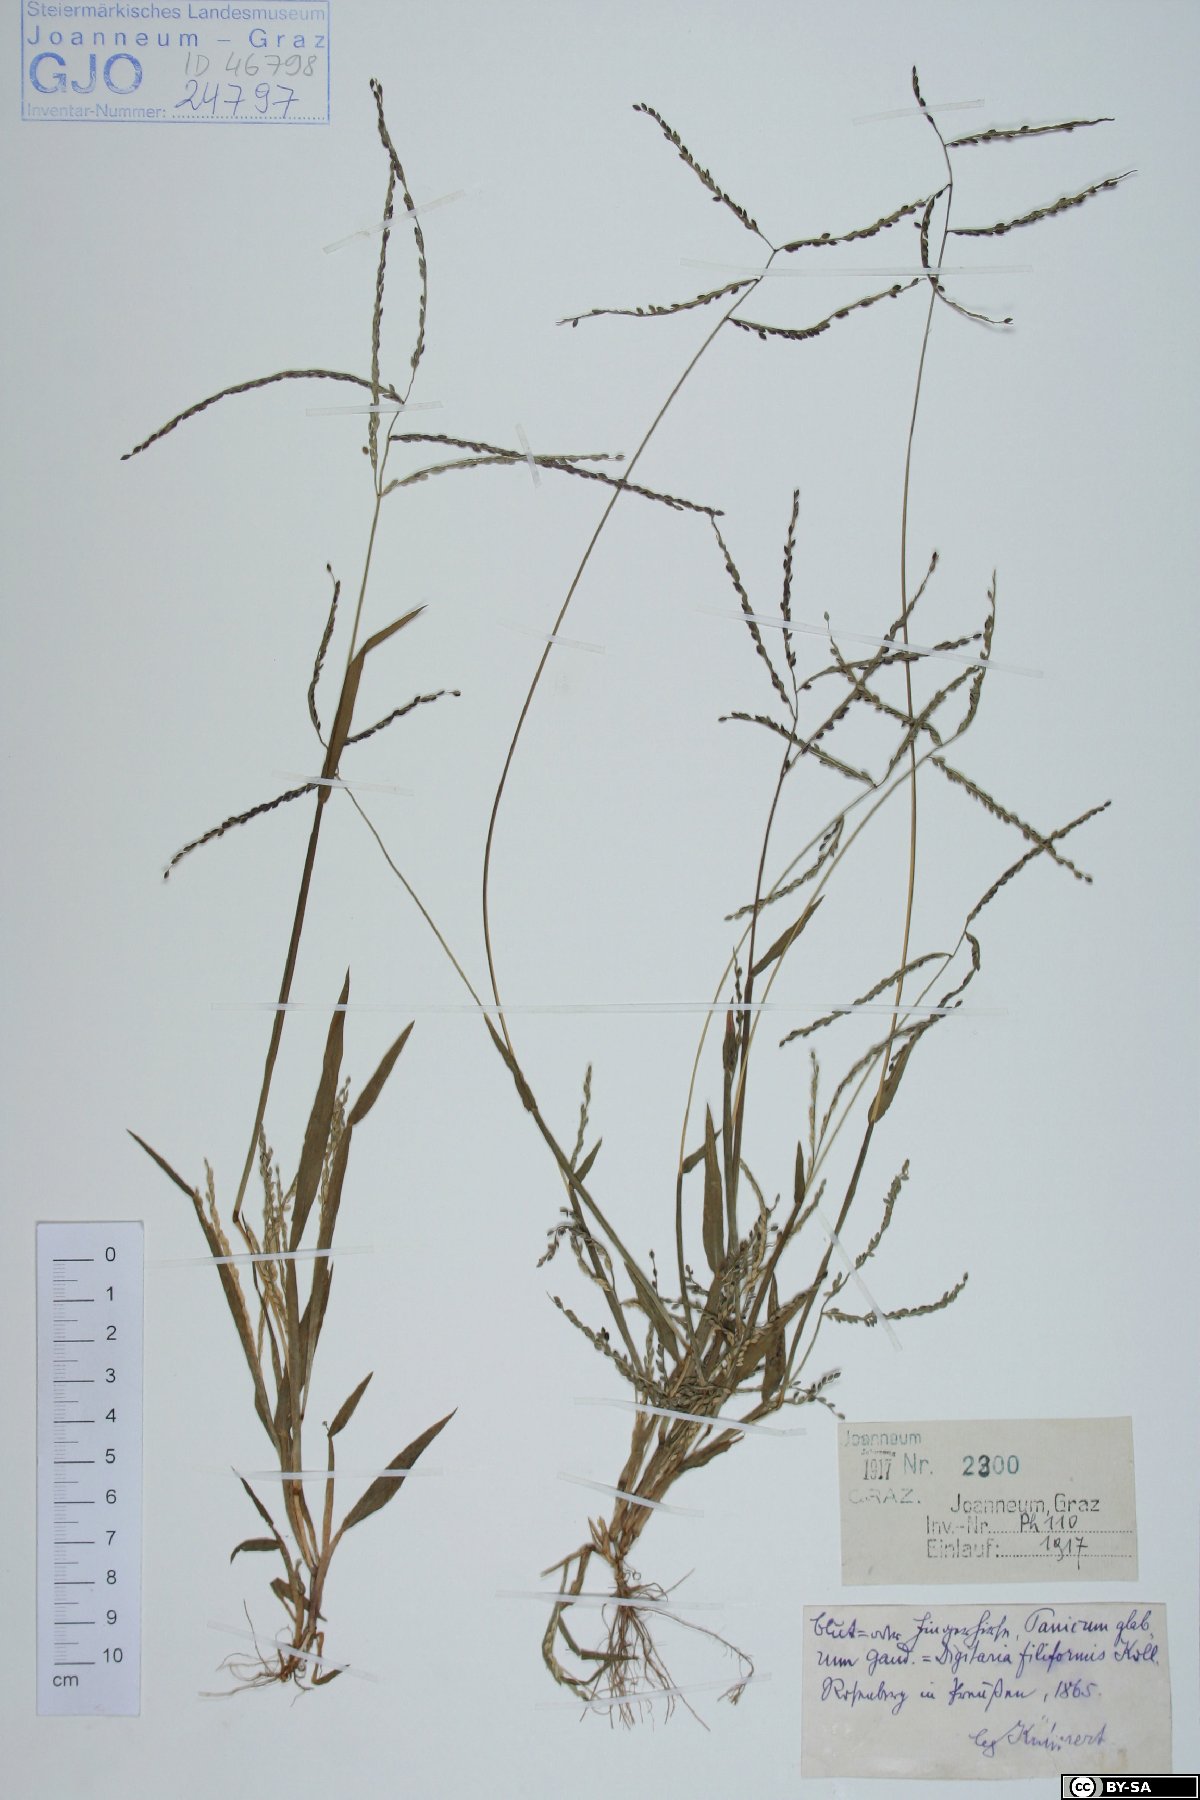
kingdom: Plantae
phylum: Tracheophyta
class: Liliopsida
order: Poales
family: Poaceae
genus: Digitaria
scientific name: Digitaria ischaemum
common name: Smooth crabgrass
